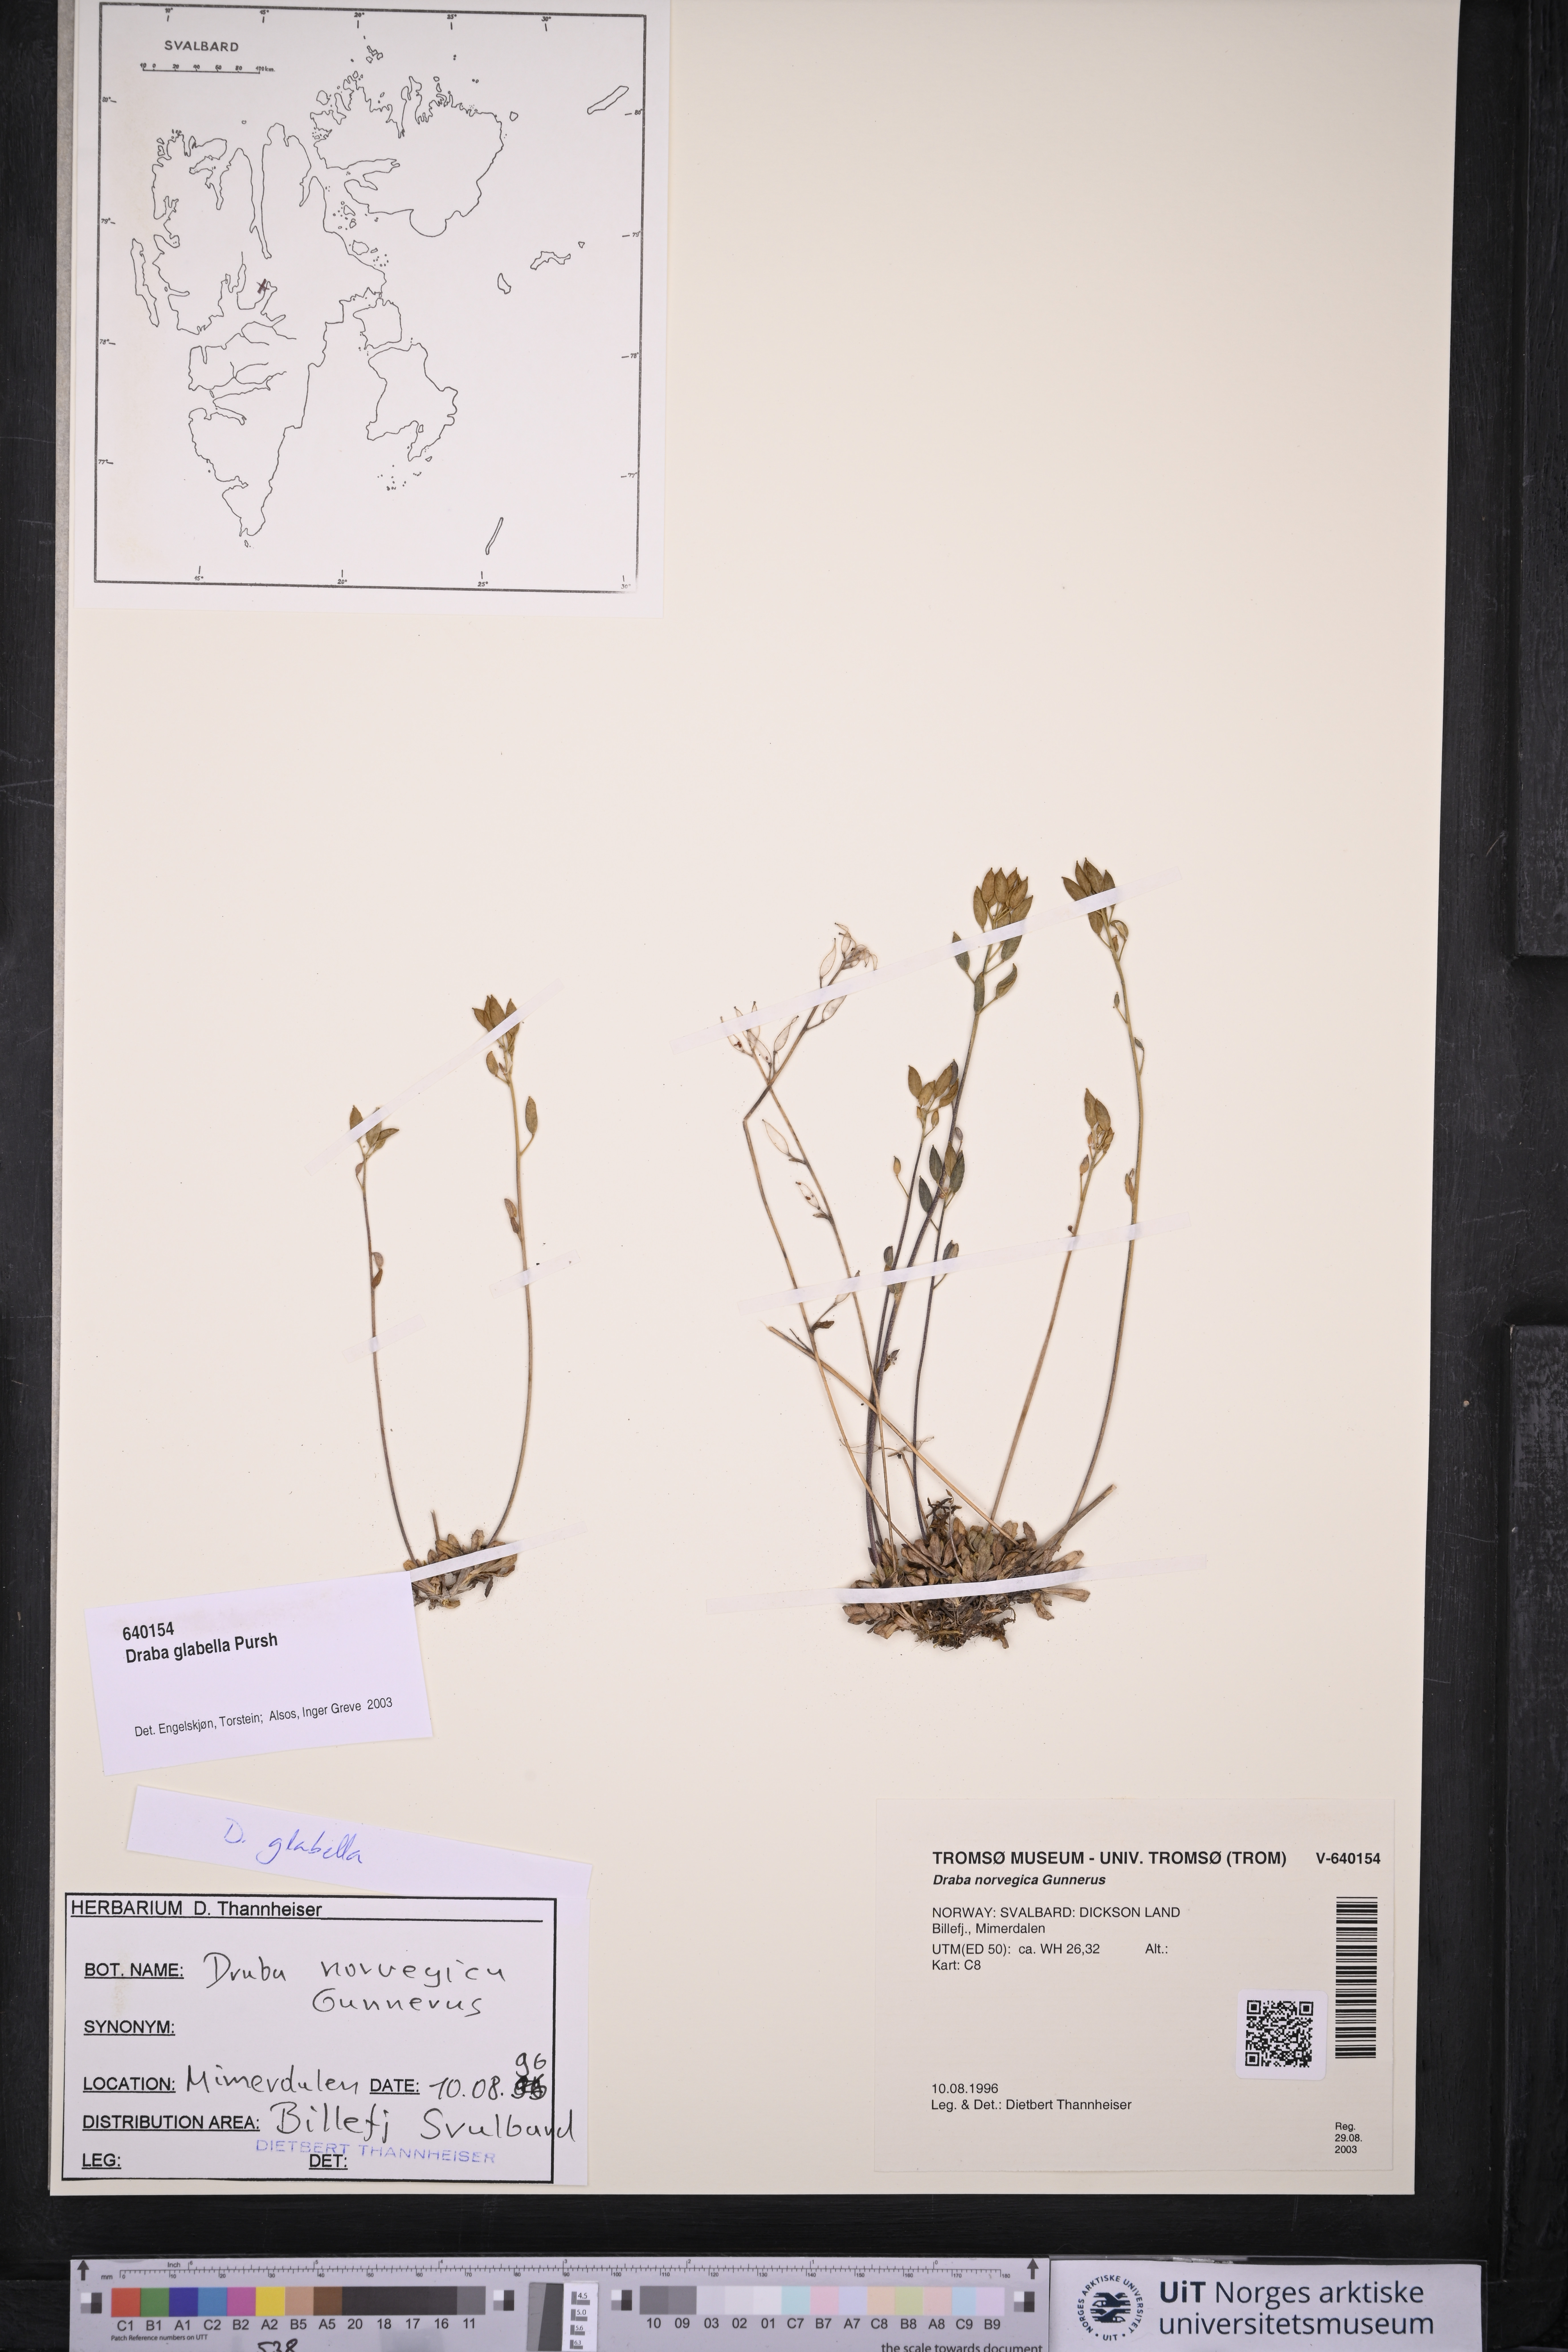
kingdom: Plantae
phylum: Tracheophyta
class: Magnoliopsida
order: Brassicales
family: Brassicaceae
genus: Draba
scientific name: Draba glabella
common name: Glaucous draba
